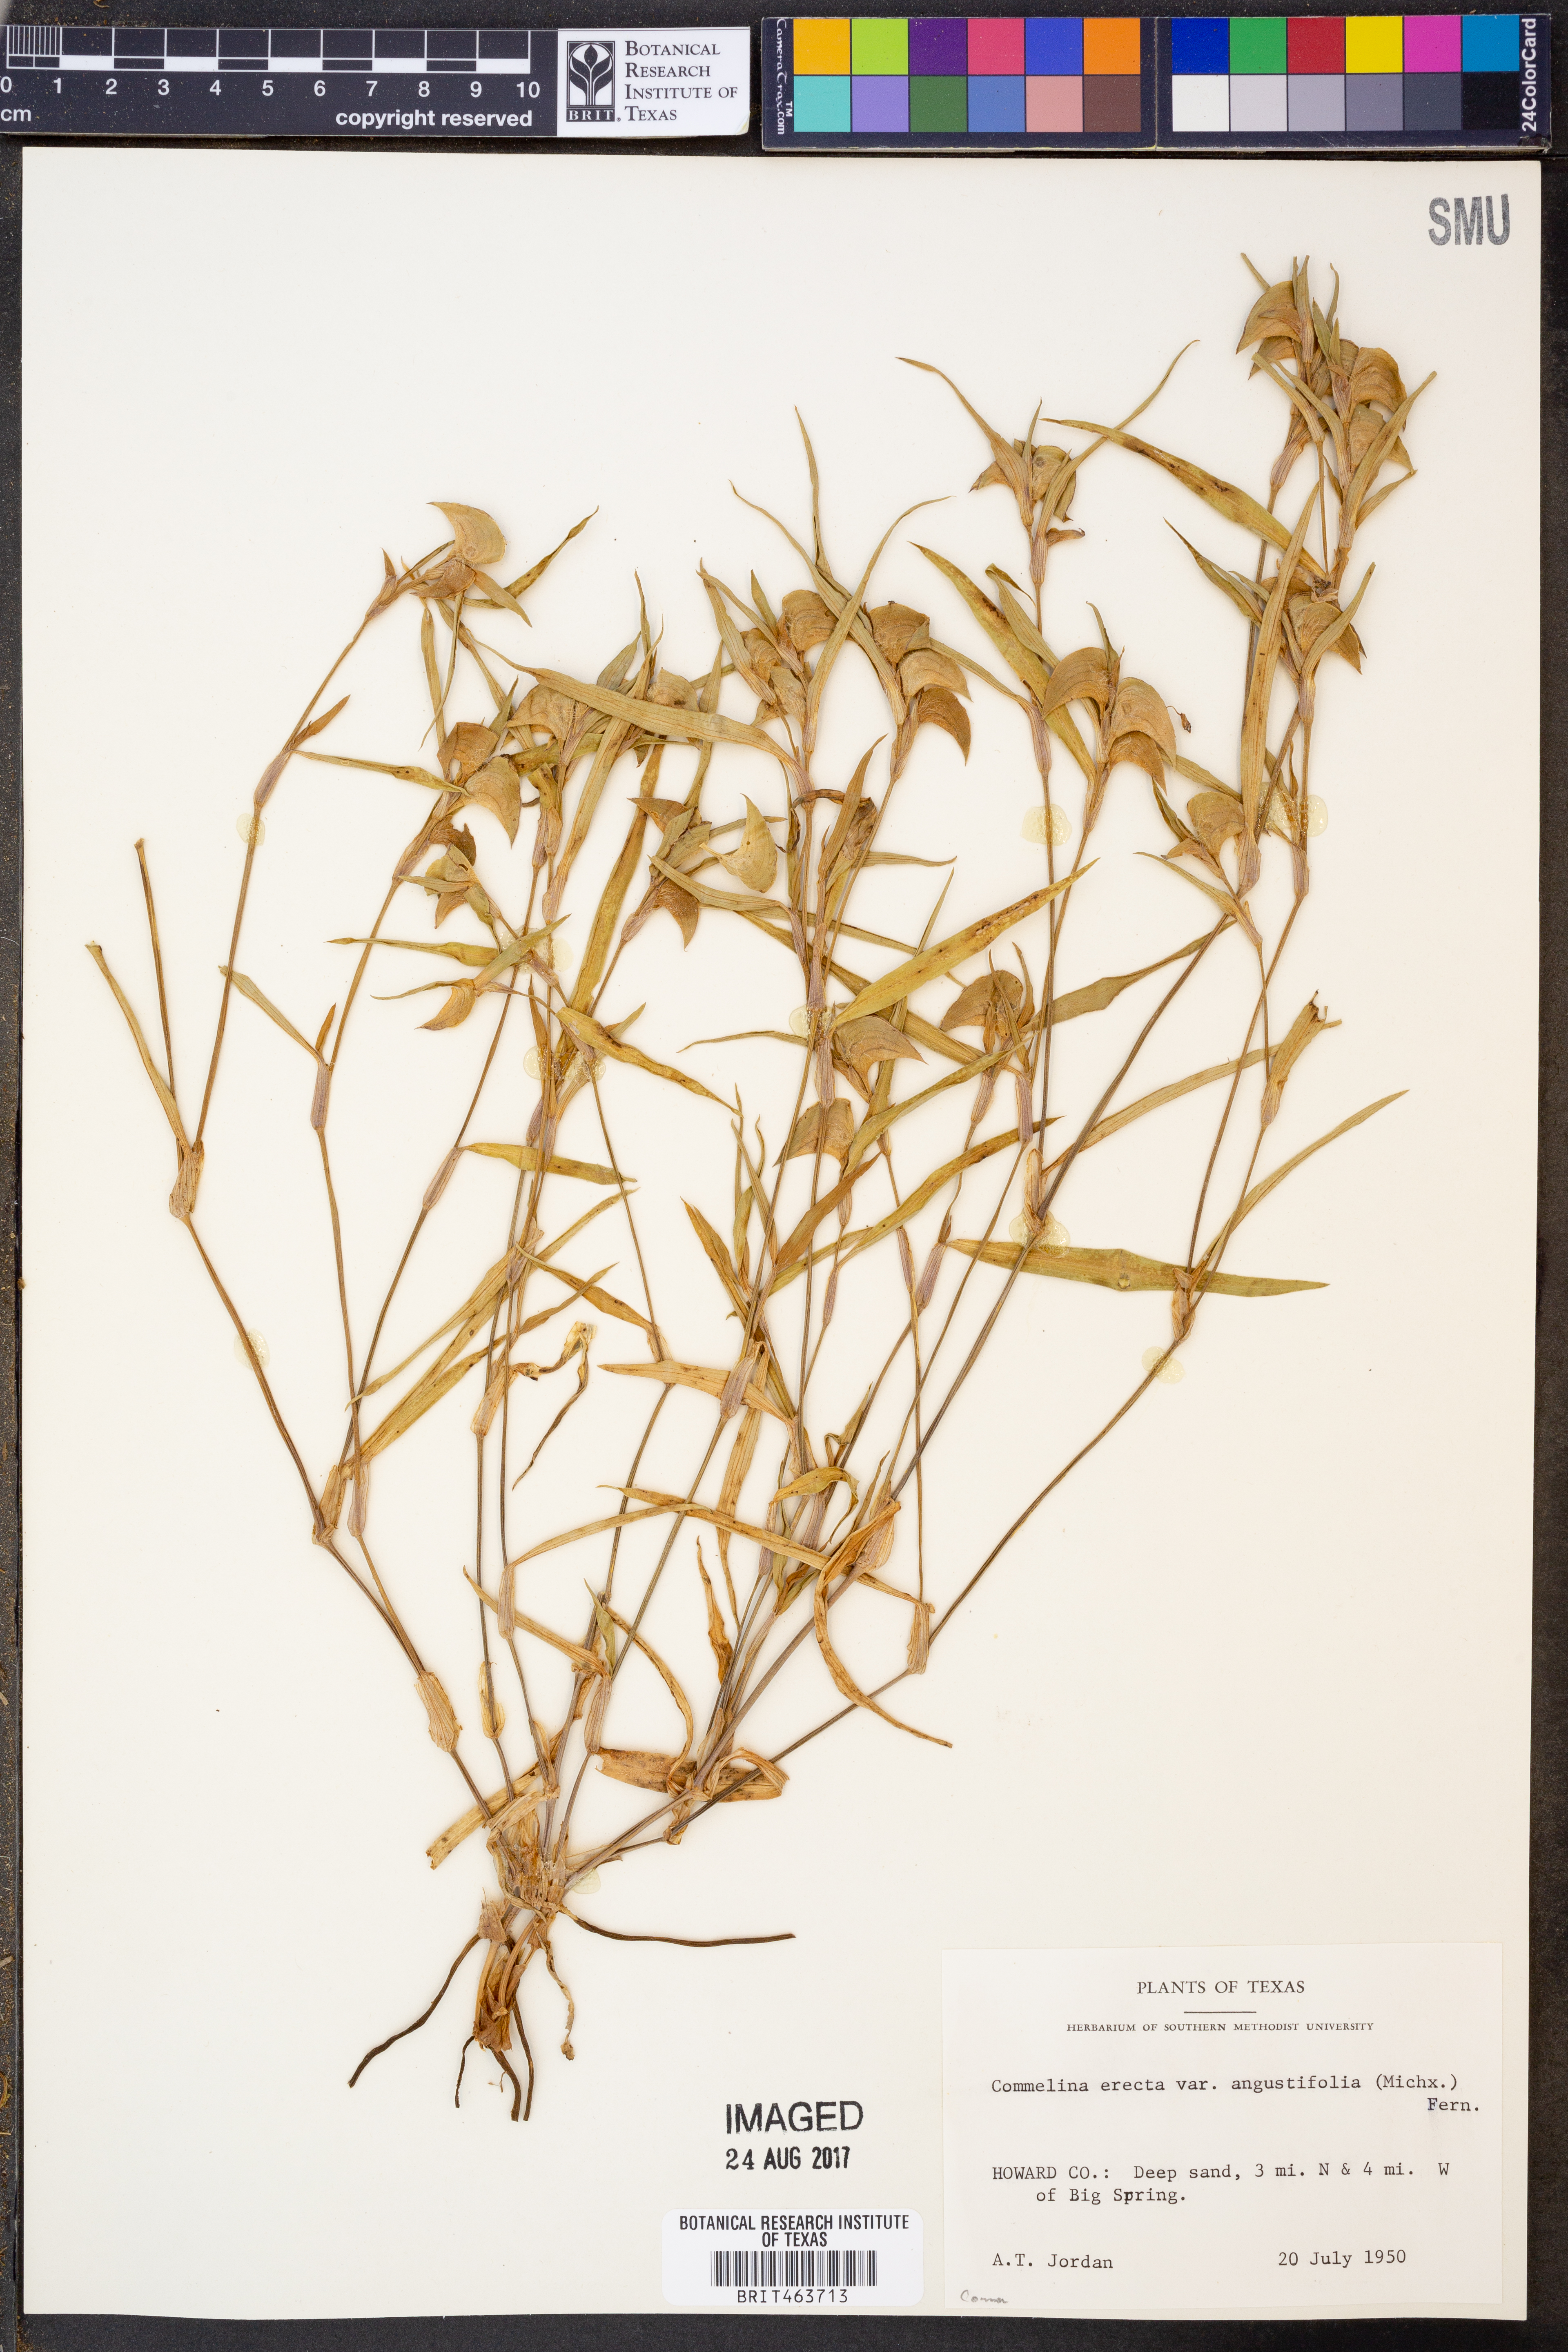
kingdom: Plantae
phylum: Tracheophyta
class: Liliopsida
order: Commelinales
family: Commelinaceae
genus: Commelina
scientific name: Commelina erecta
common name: Blousel blommetjie
